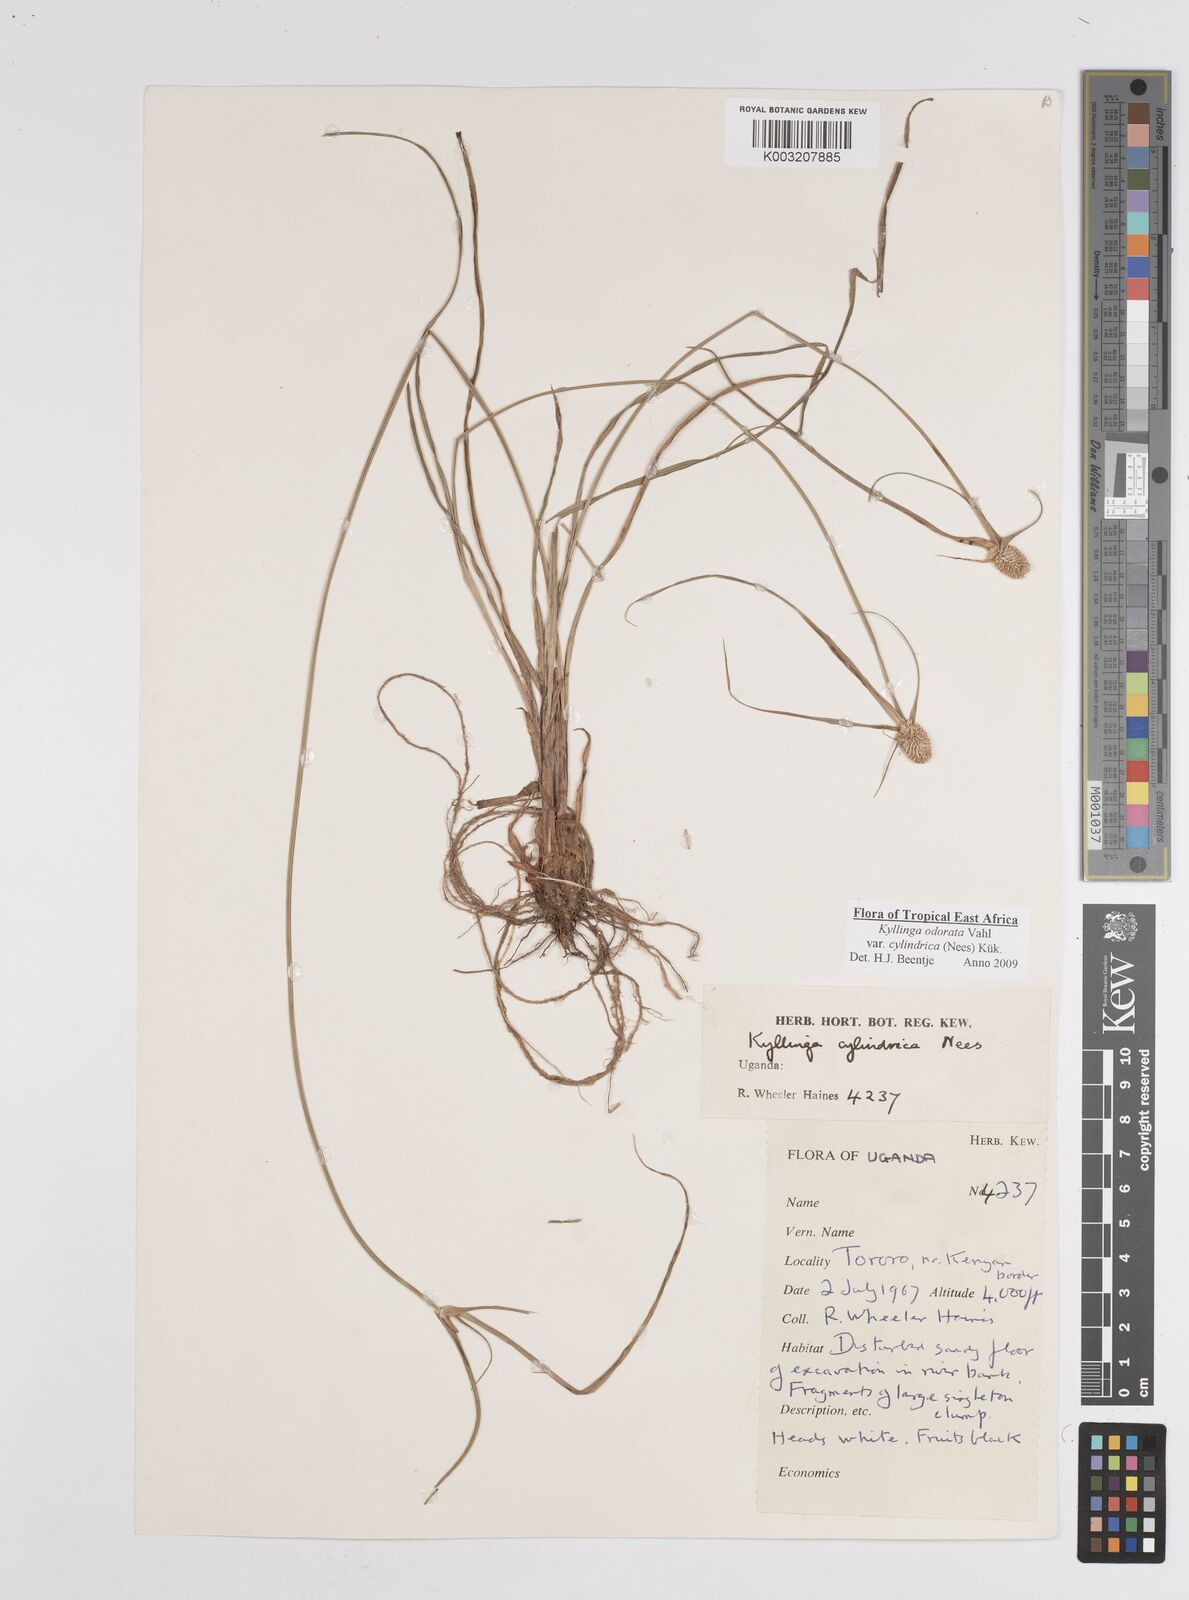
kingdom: Plantae
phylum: Tracheophyta
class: Liliopsida
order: Poales
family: Cyperaceae
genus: Cyperus
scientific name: Cyperus
